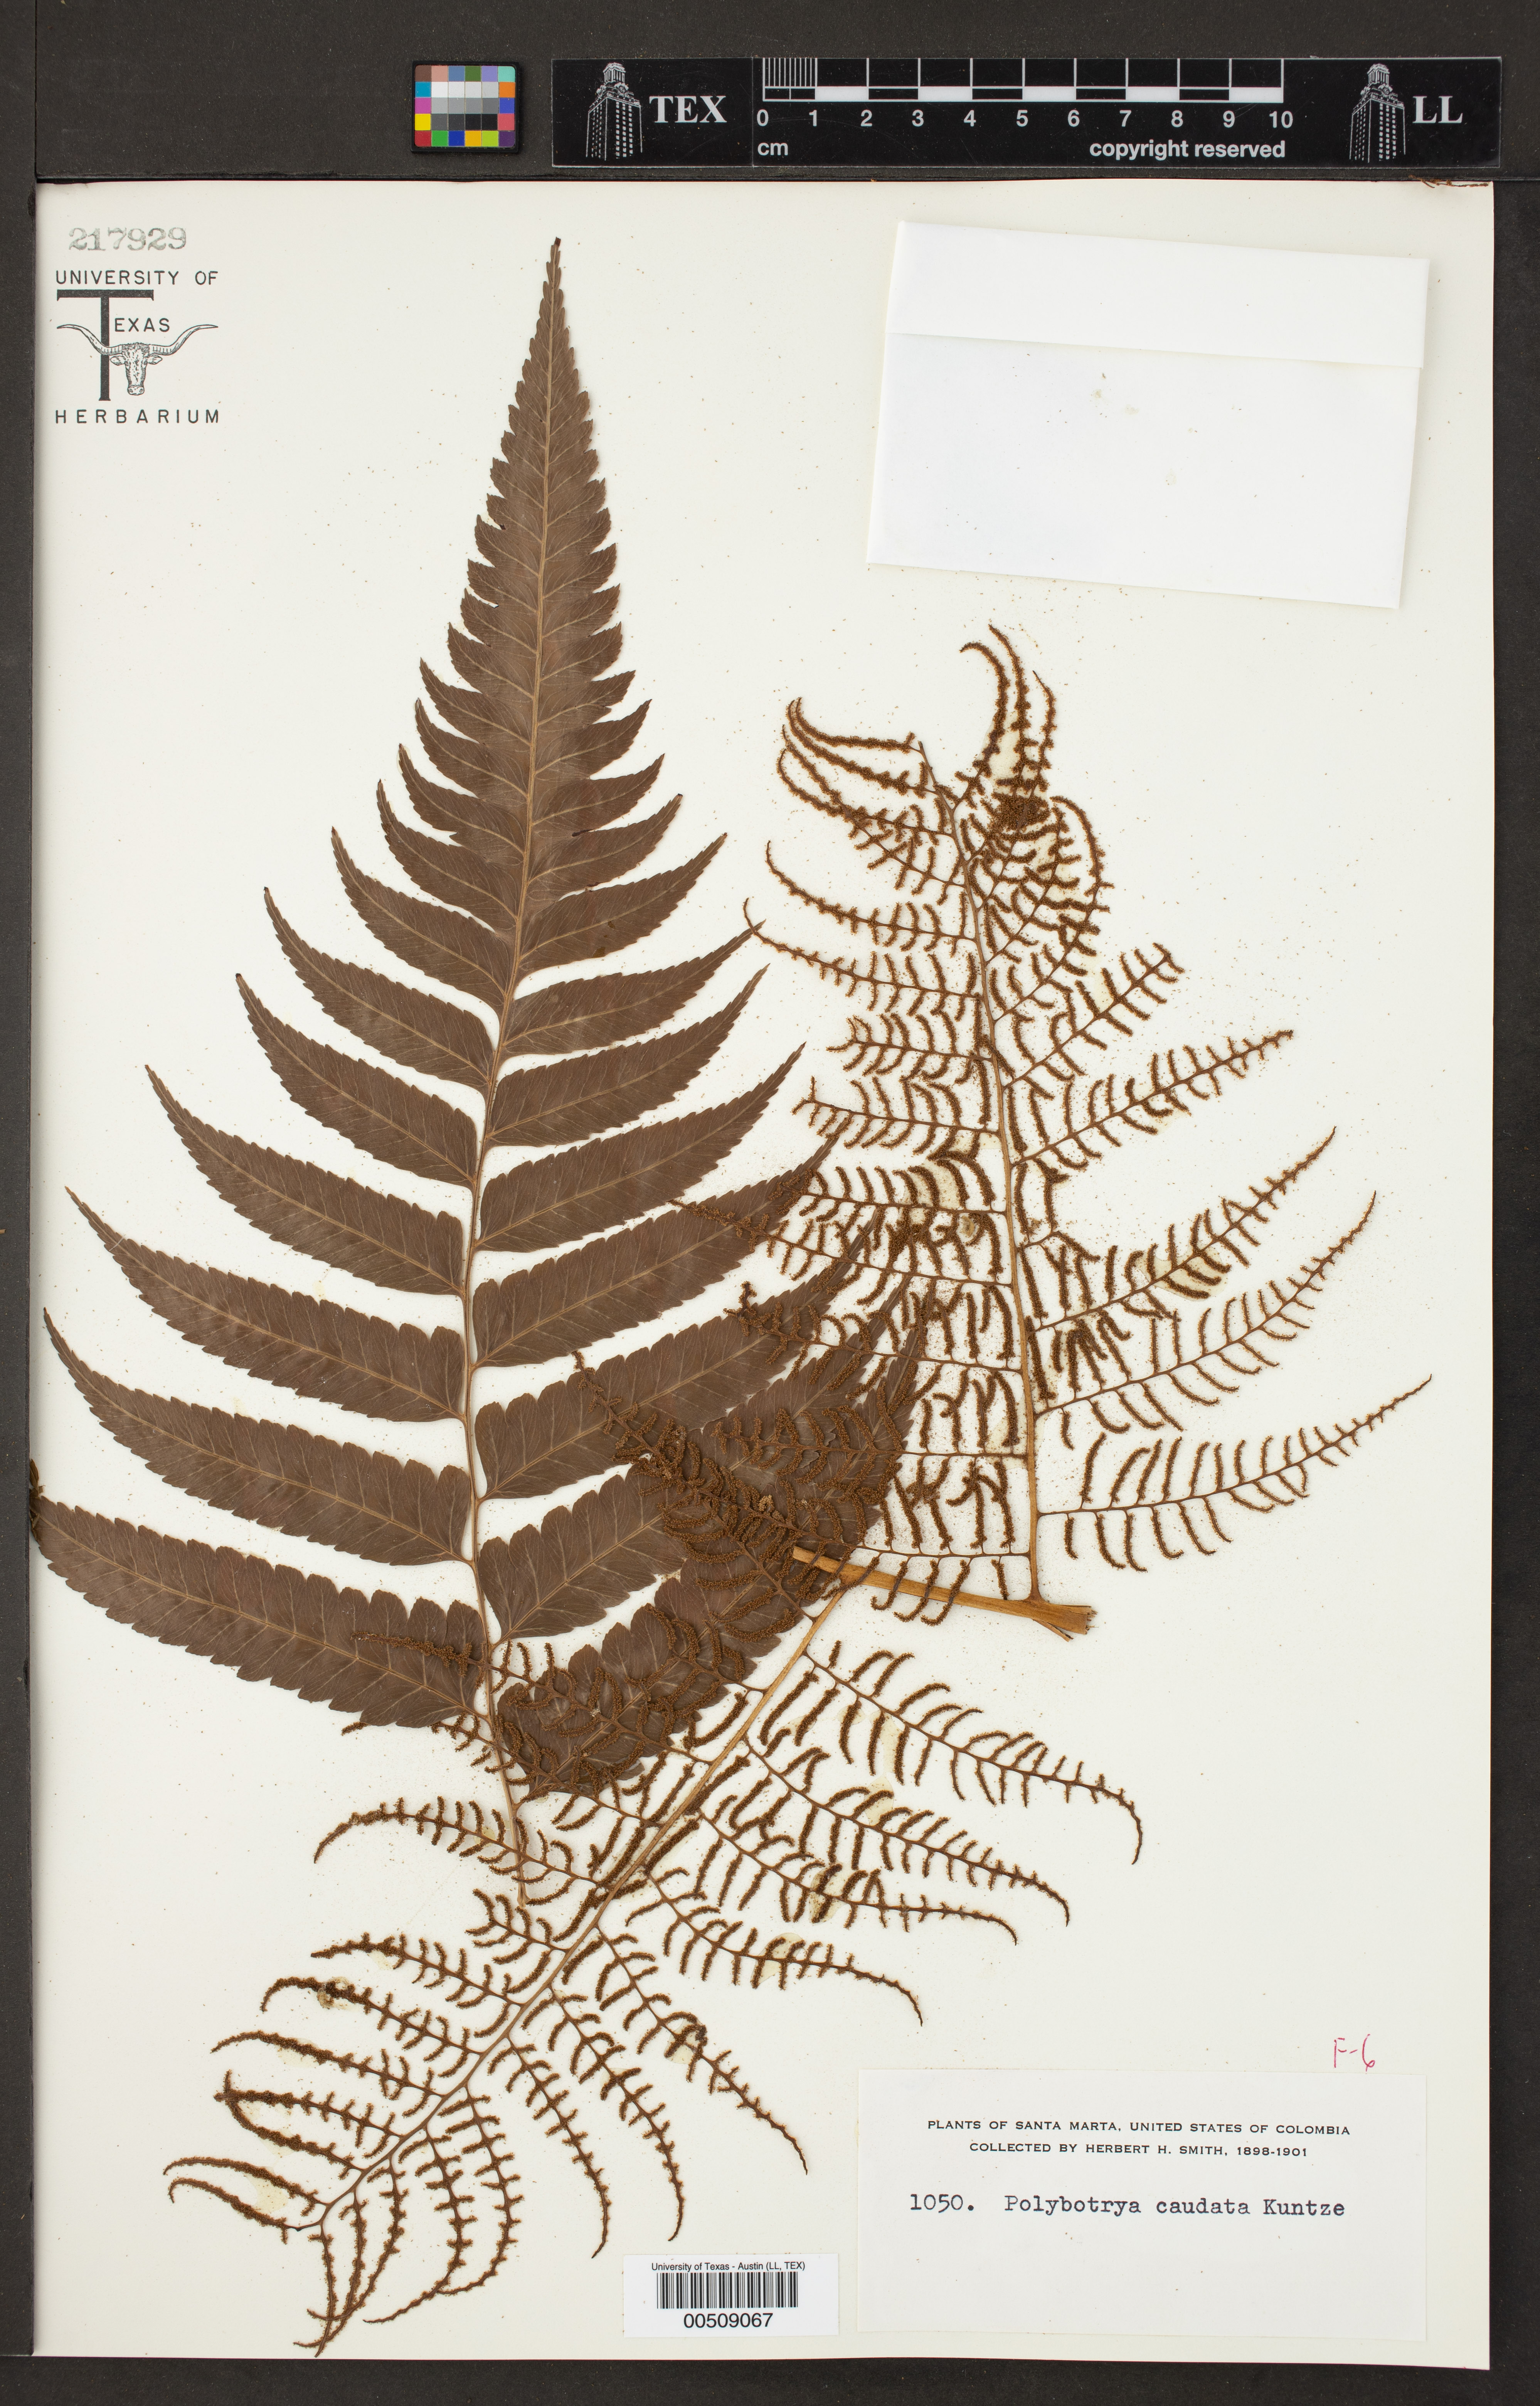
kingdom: Plantae
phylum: Tracheophyta
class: Polypodiopsida
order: Polypodiales
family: Dryopteridaceae
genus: Polybotrya
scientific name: Polybotrya caudata
